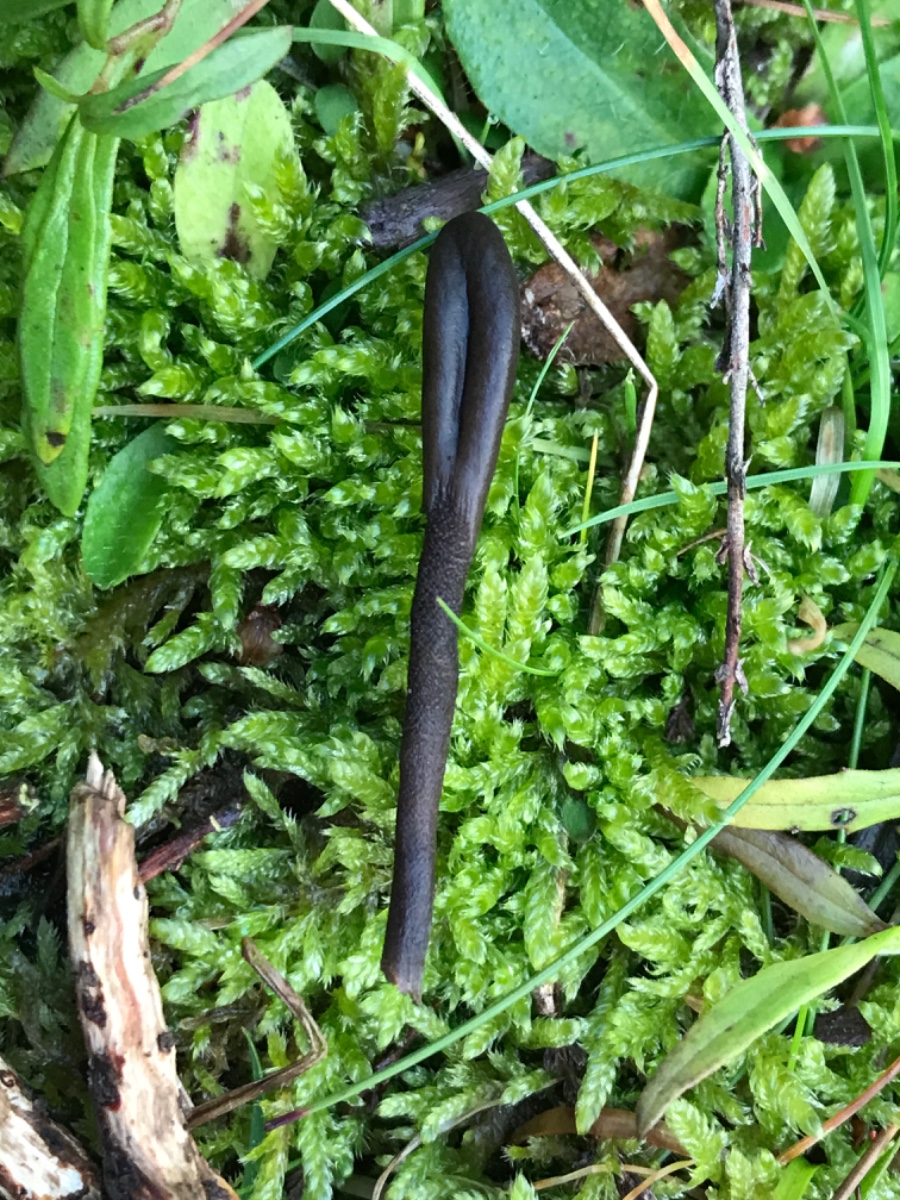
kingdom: Fungi
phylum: Ascomycota
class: Geoglossomycetes
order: Geoglossales
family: Geoglossaceae
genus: Hemileucoglossum
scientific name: Hemileucoglossum elongatum
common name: småsporet jordtunge
